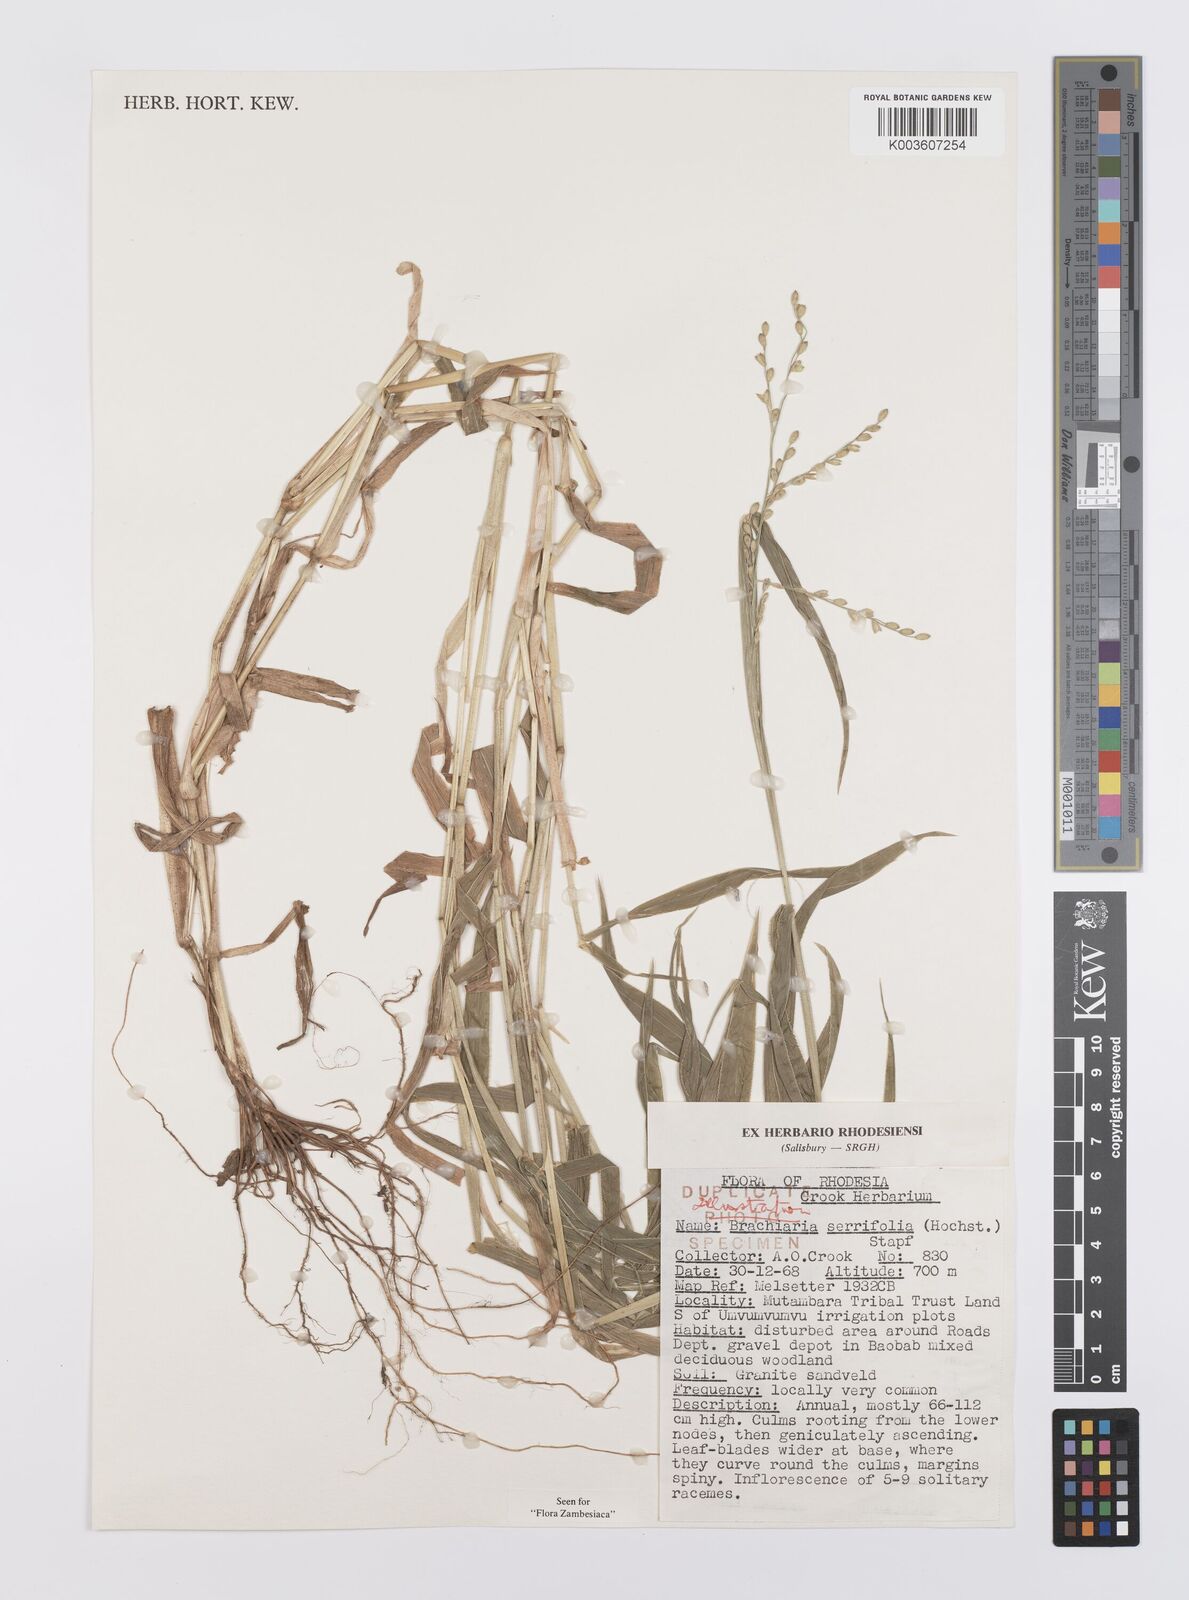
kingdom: Plantae
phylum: Tracheophyta
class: Liliopsida
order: Poales
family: Poaceae
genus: Urochloa
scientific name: Urochloa serrifolia
